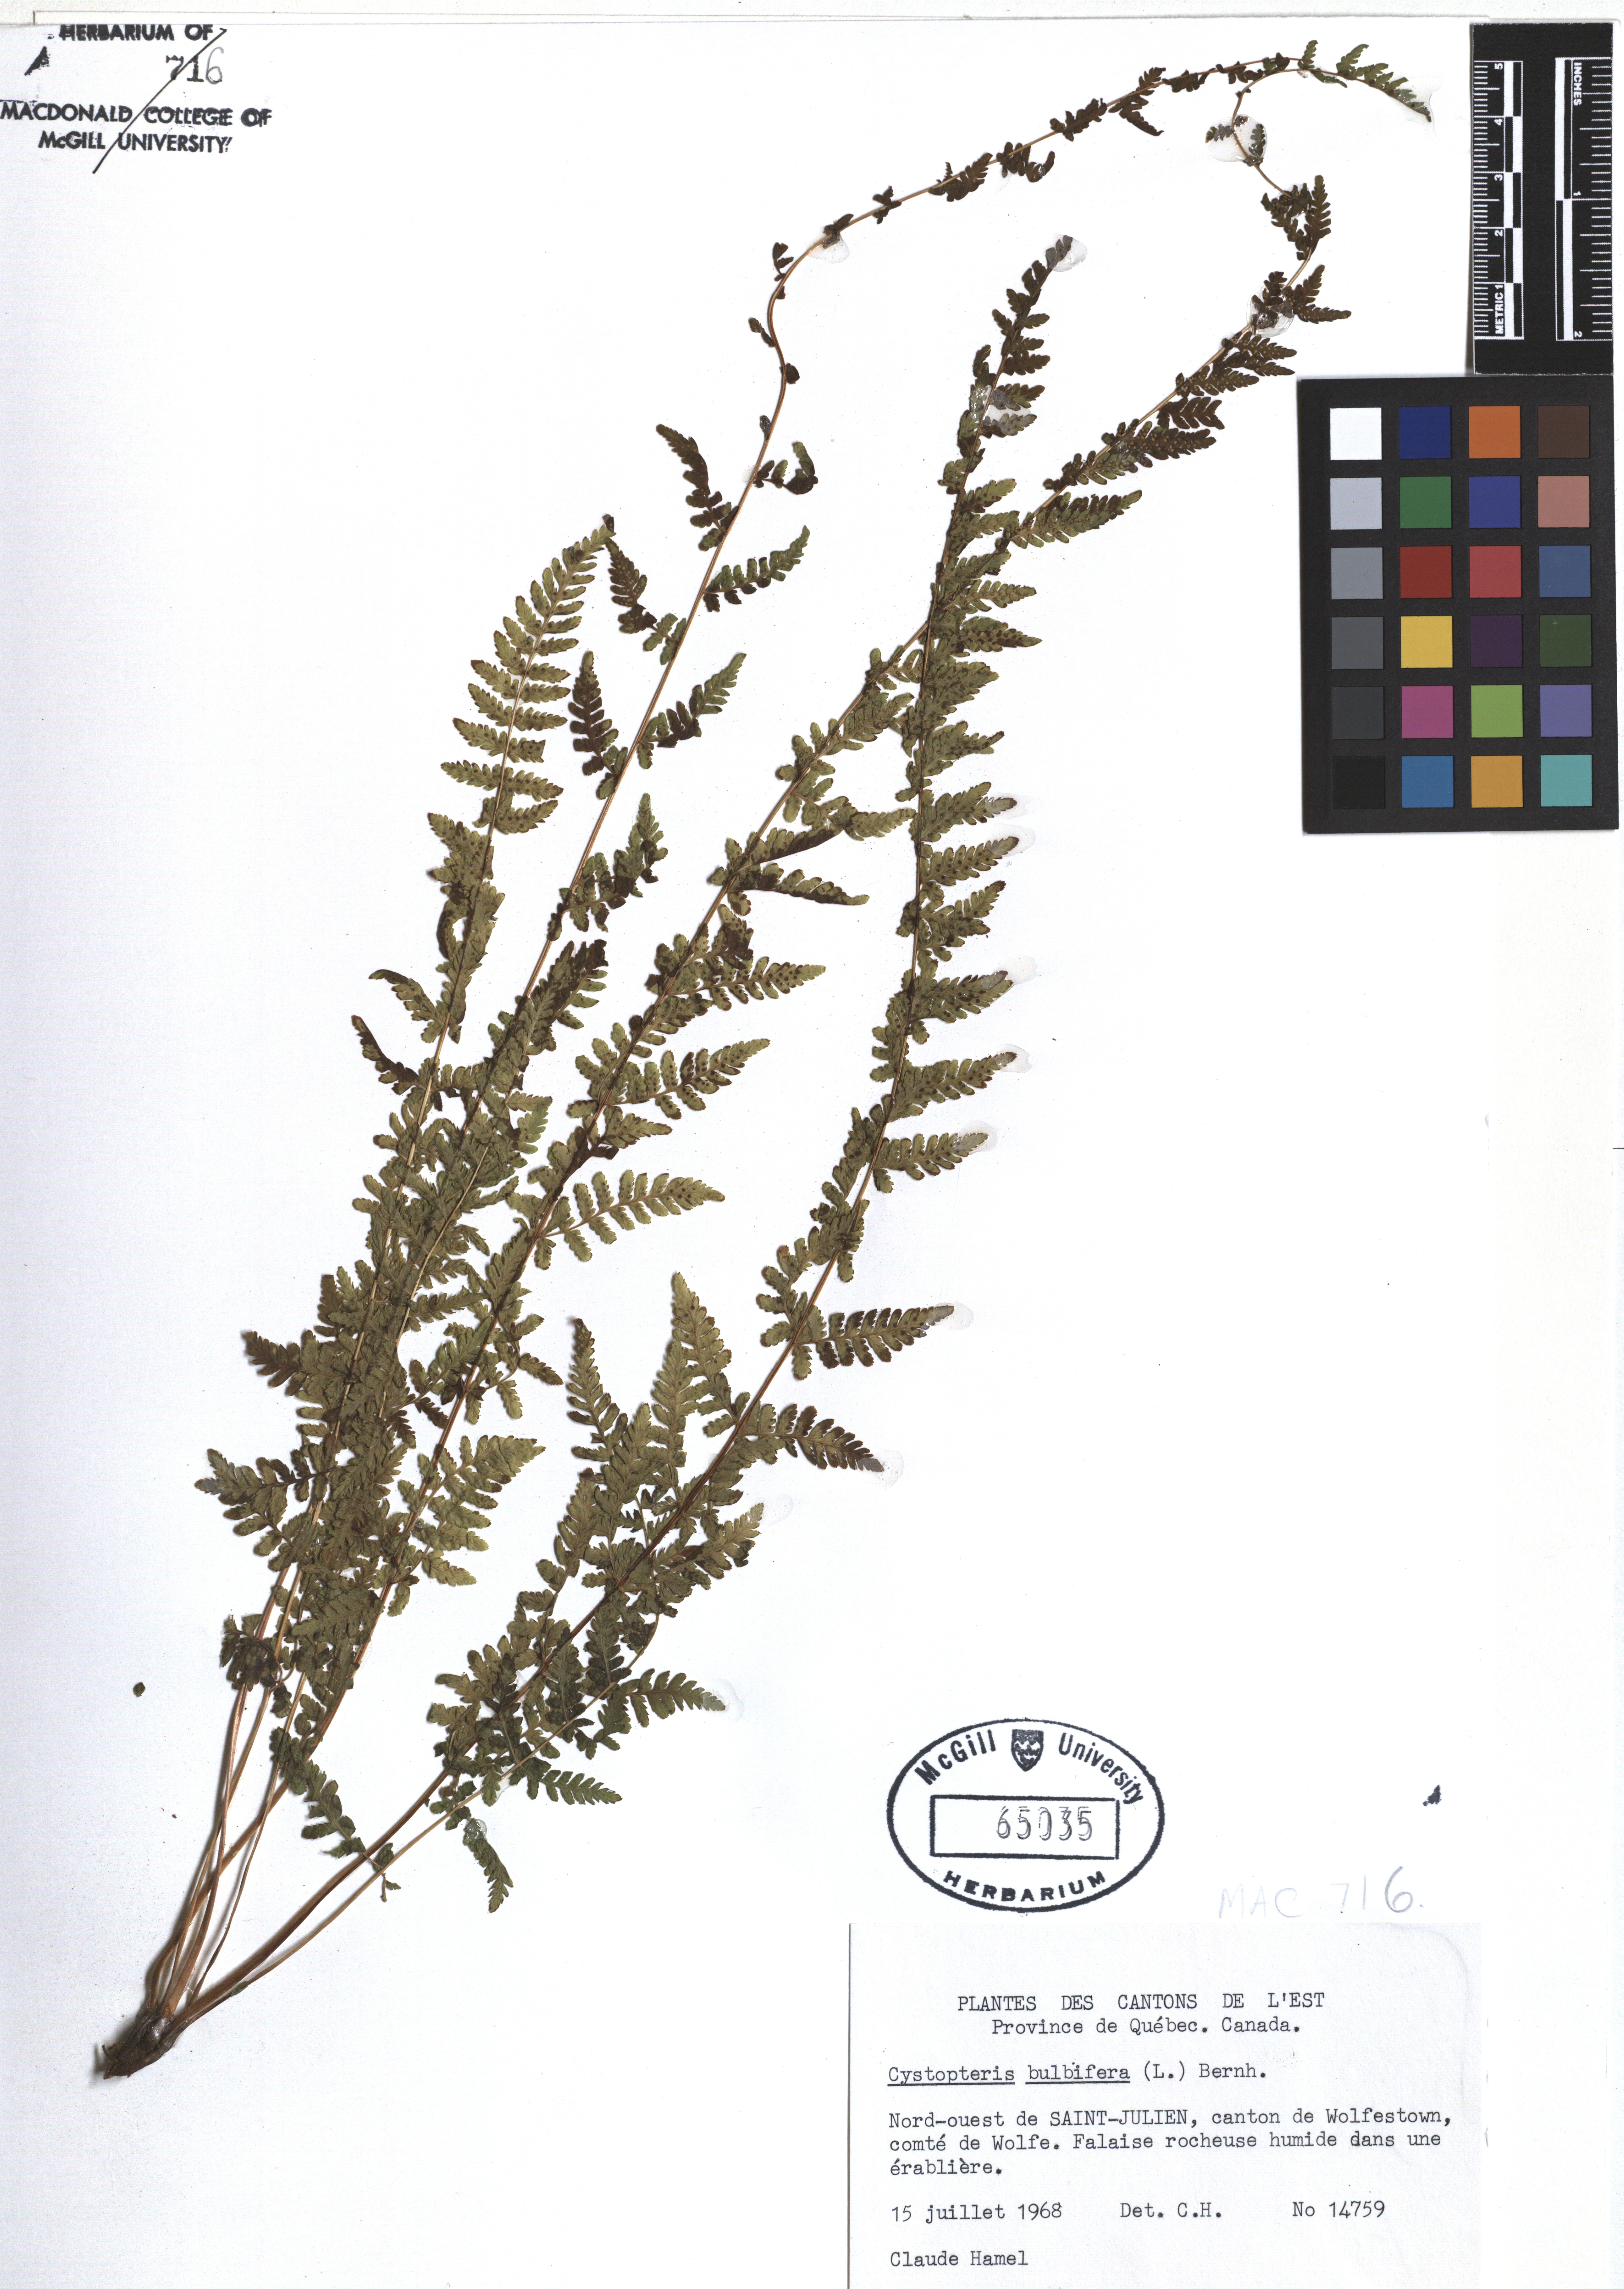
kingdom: Plantae
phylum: Tracheophyta
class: Polypodiopsida
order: Polypodiales
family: Cystopteridaceae
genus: Cystopteris
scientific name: Cystopteris bulbifera
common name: Bulblet bladder fern
